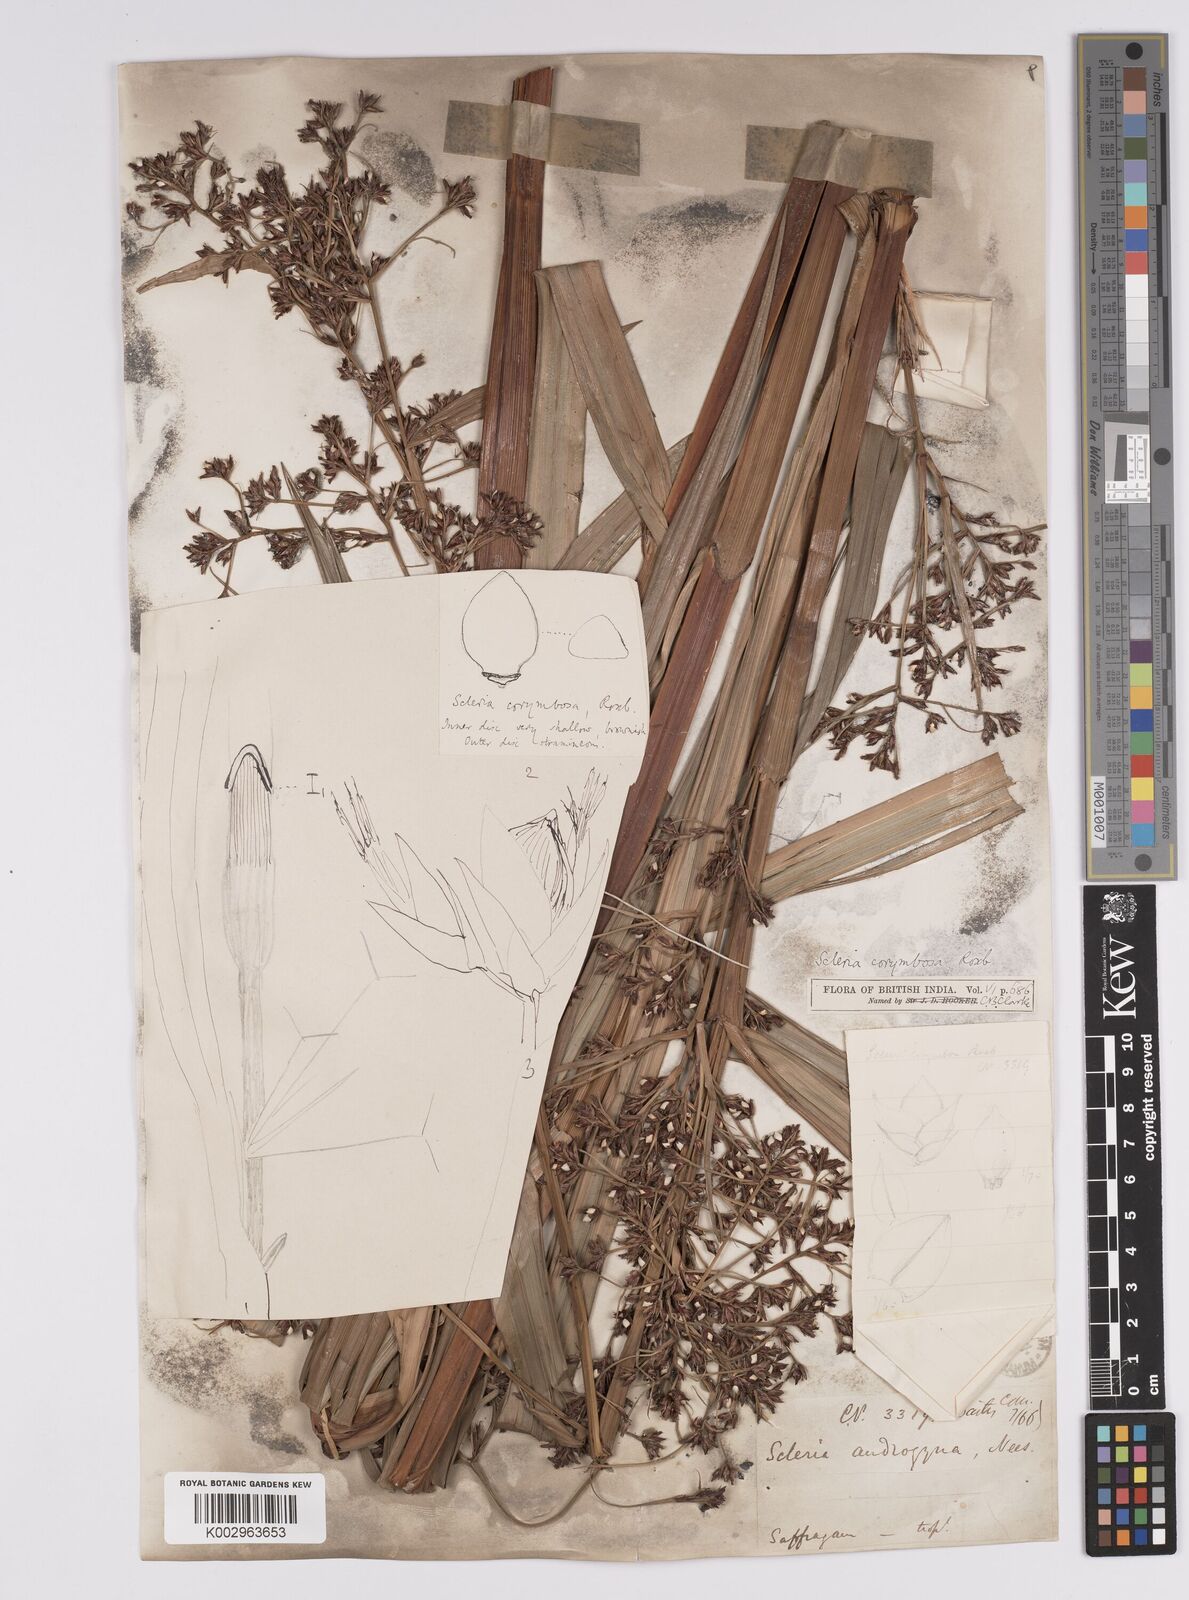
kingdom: Plantae
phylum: Tracheophyta
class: Liliopsida
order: Poales
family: Cyperaceae
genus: Scleria
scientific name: Scleria corymbosa
